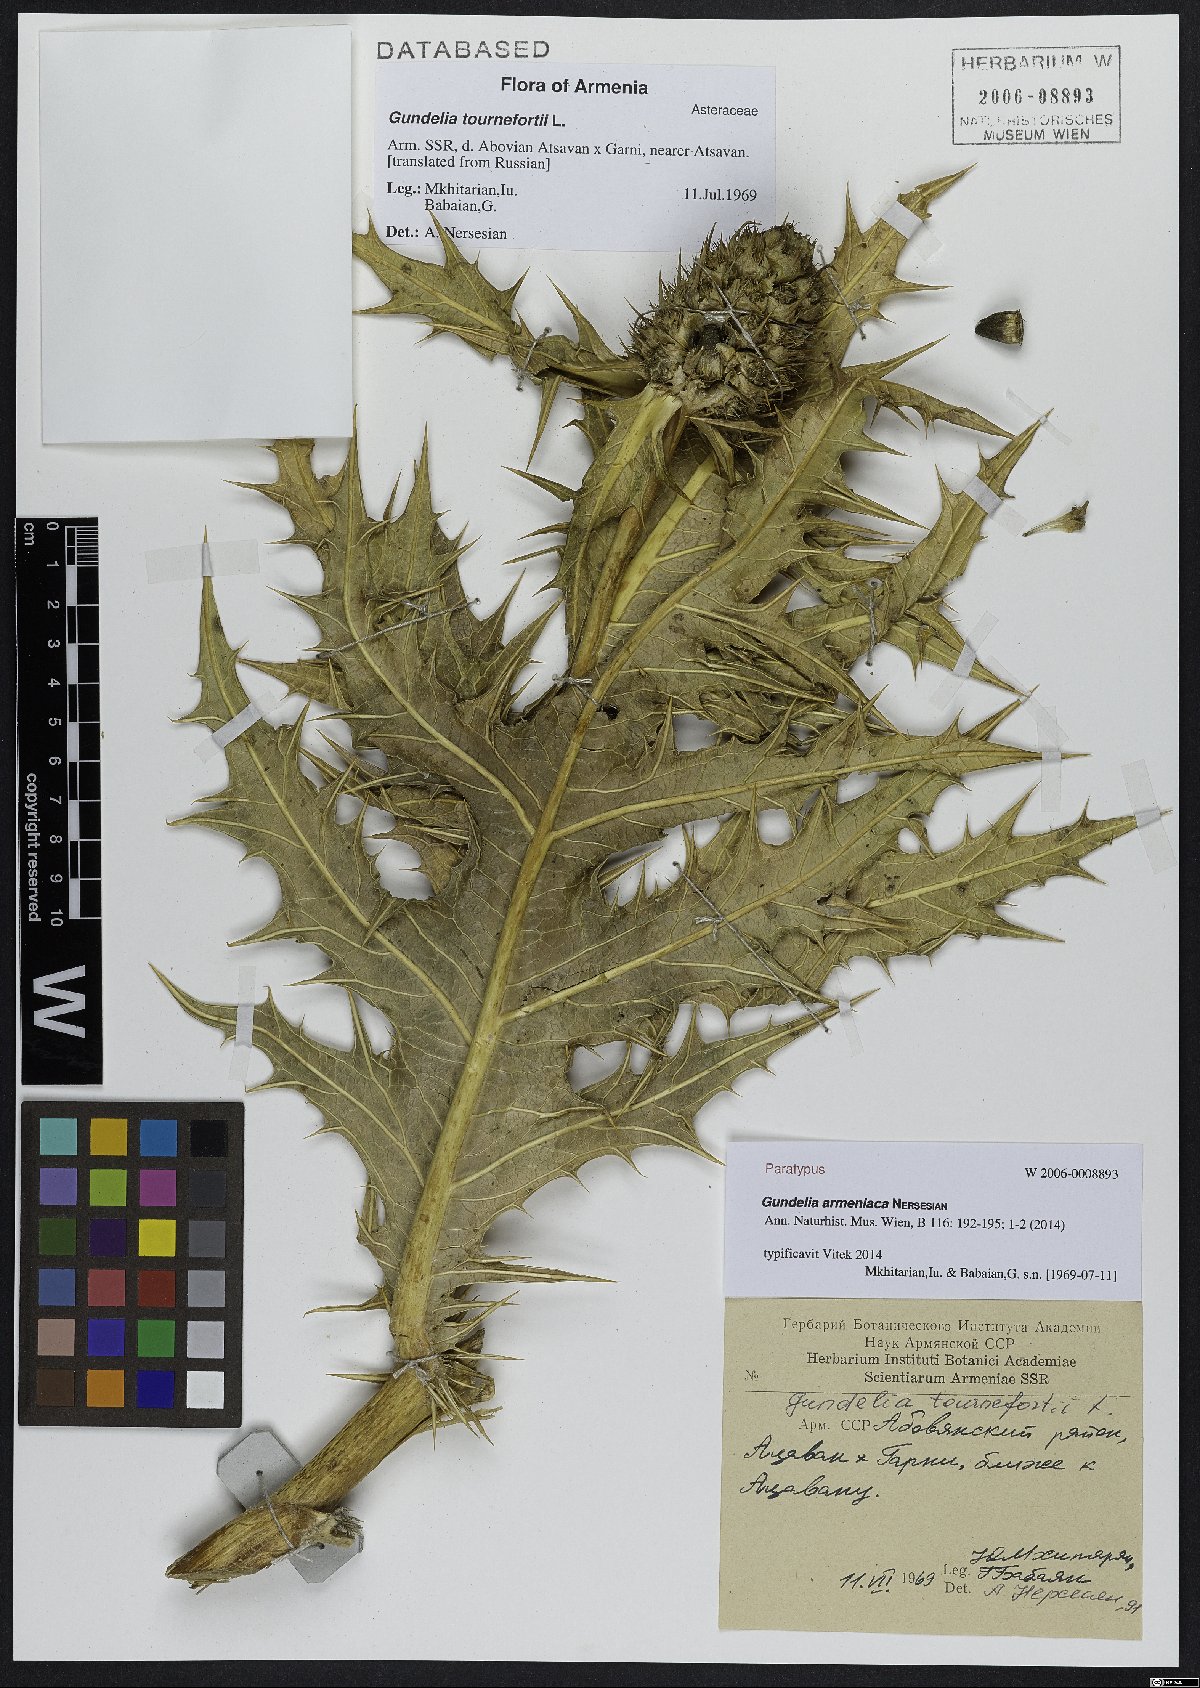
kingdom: Plantae
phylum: Tracheophyta
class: Magnoliopsida
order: Asterales
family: Asteraceae
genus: Gundelia
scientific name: Gundelia armeniaca
